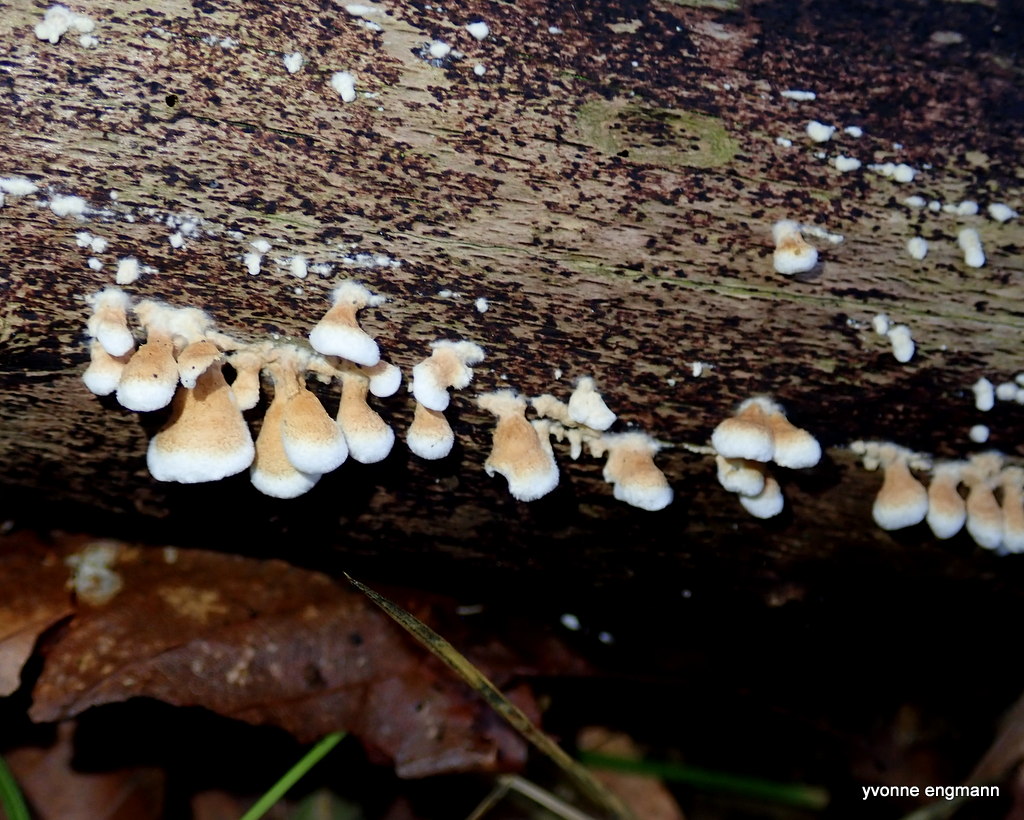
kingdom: Fungi
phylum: Basidiomycota
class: Agaricomycetes
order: Amylocorticiales
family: Amylocorticiaceae
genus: Plicaturopsis
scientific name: Plicaturopsis crispa
